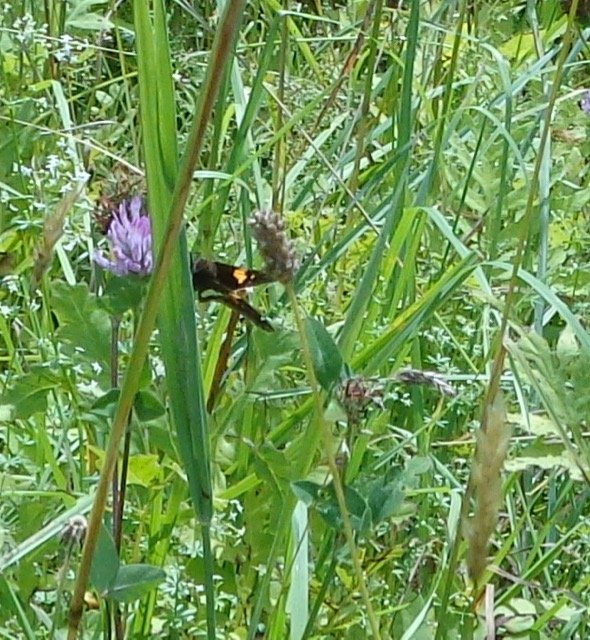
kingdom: Animalia
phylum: Arthropoda
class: Insecta
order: Lepidoptera
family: Hesperiidae
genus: Epargyreus
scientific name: Epargyreus clarus
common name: Silver-spotted Skipper
